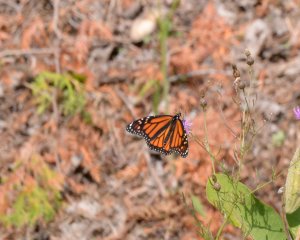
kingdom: Animalia
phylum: Arthropoda
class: Insecta
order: Lepidoptera
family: Nymphalidae
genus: Danaus
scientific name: Danaus plexippus
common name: Monarch
